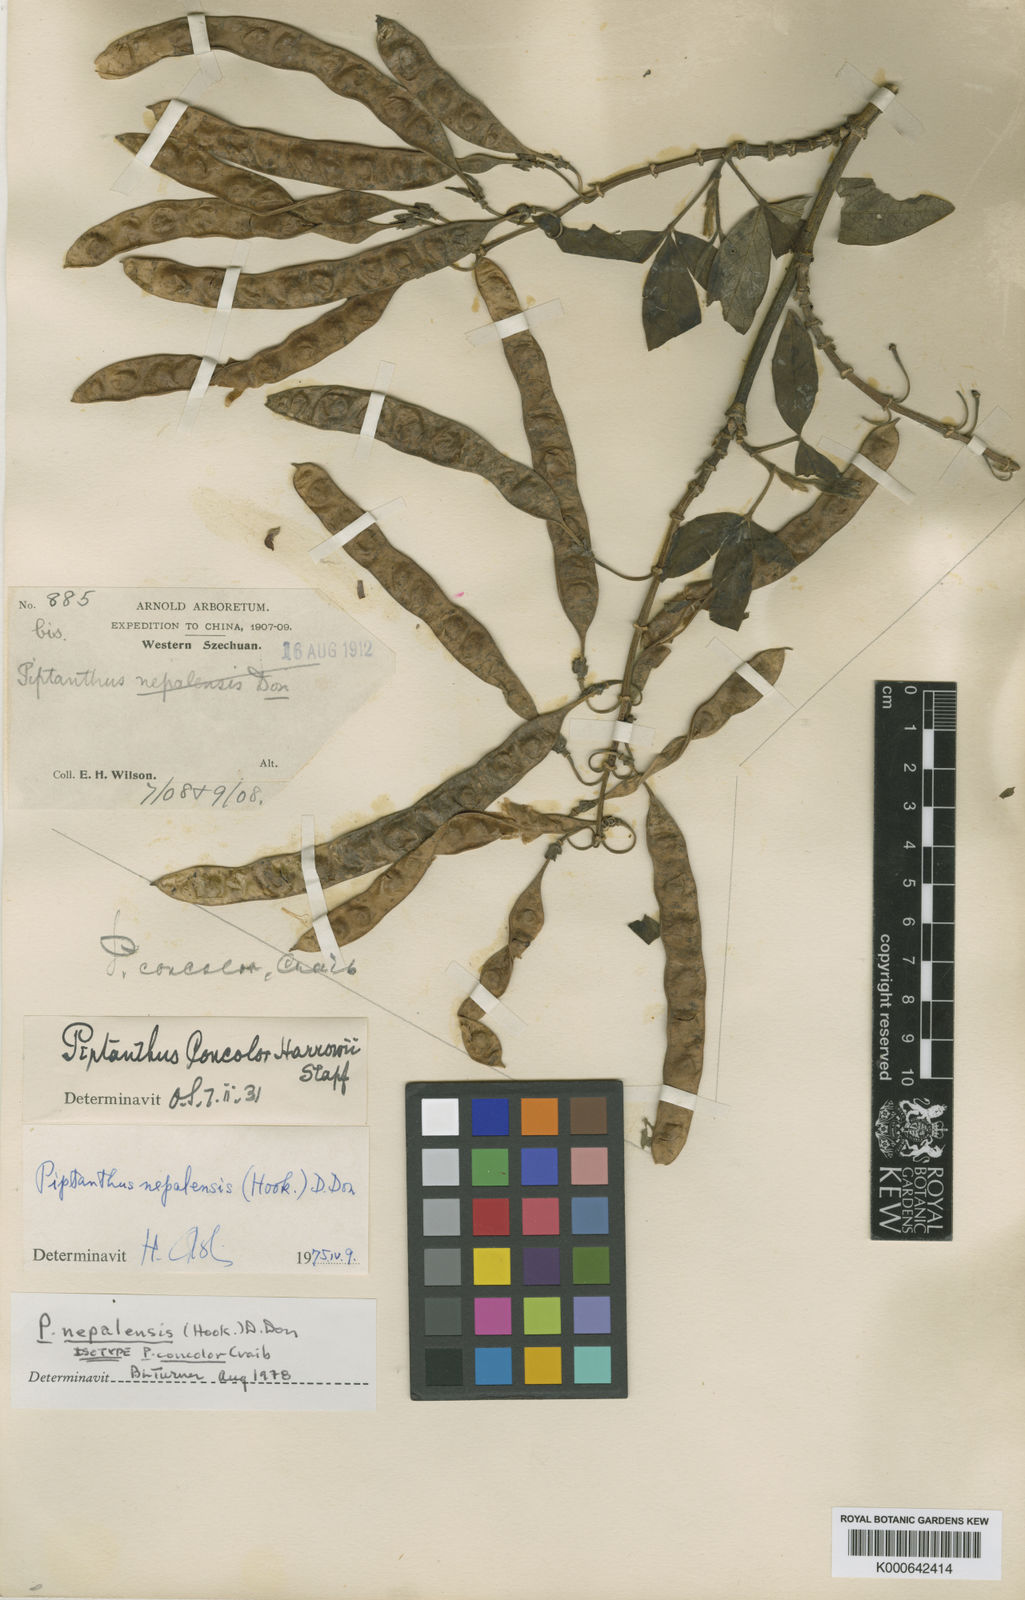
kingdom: Plantae
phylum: Tracheophyta
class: Magnoliopsida
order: Fabales
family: Fabaceae
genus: Piptanthus
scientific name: Piptanthus
